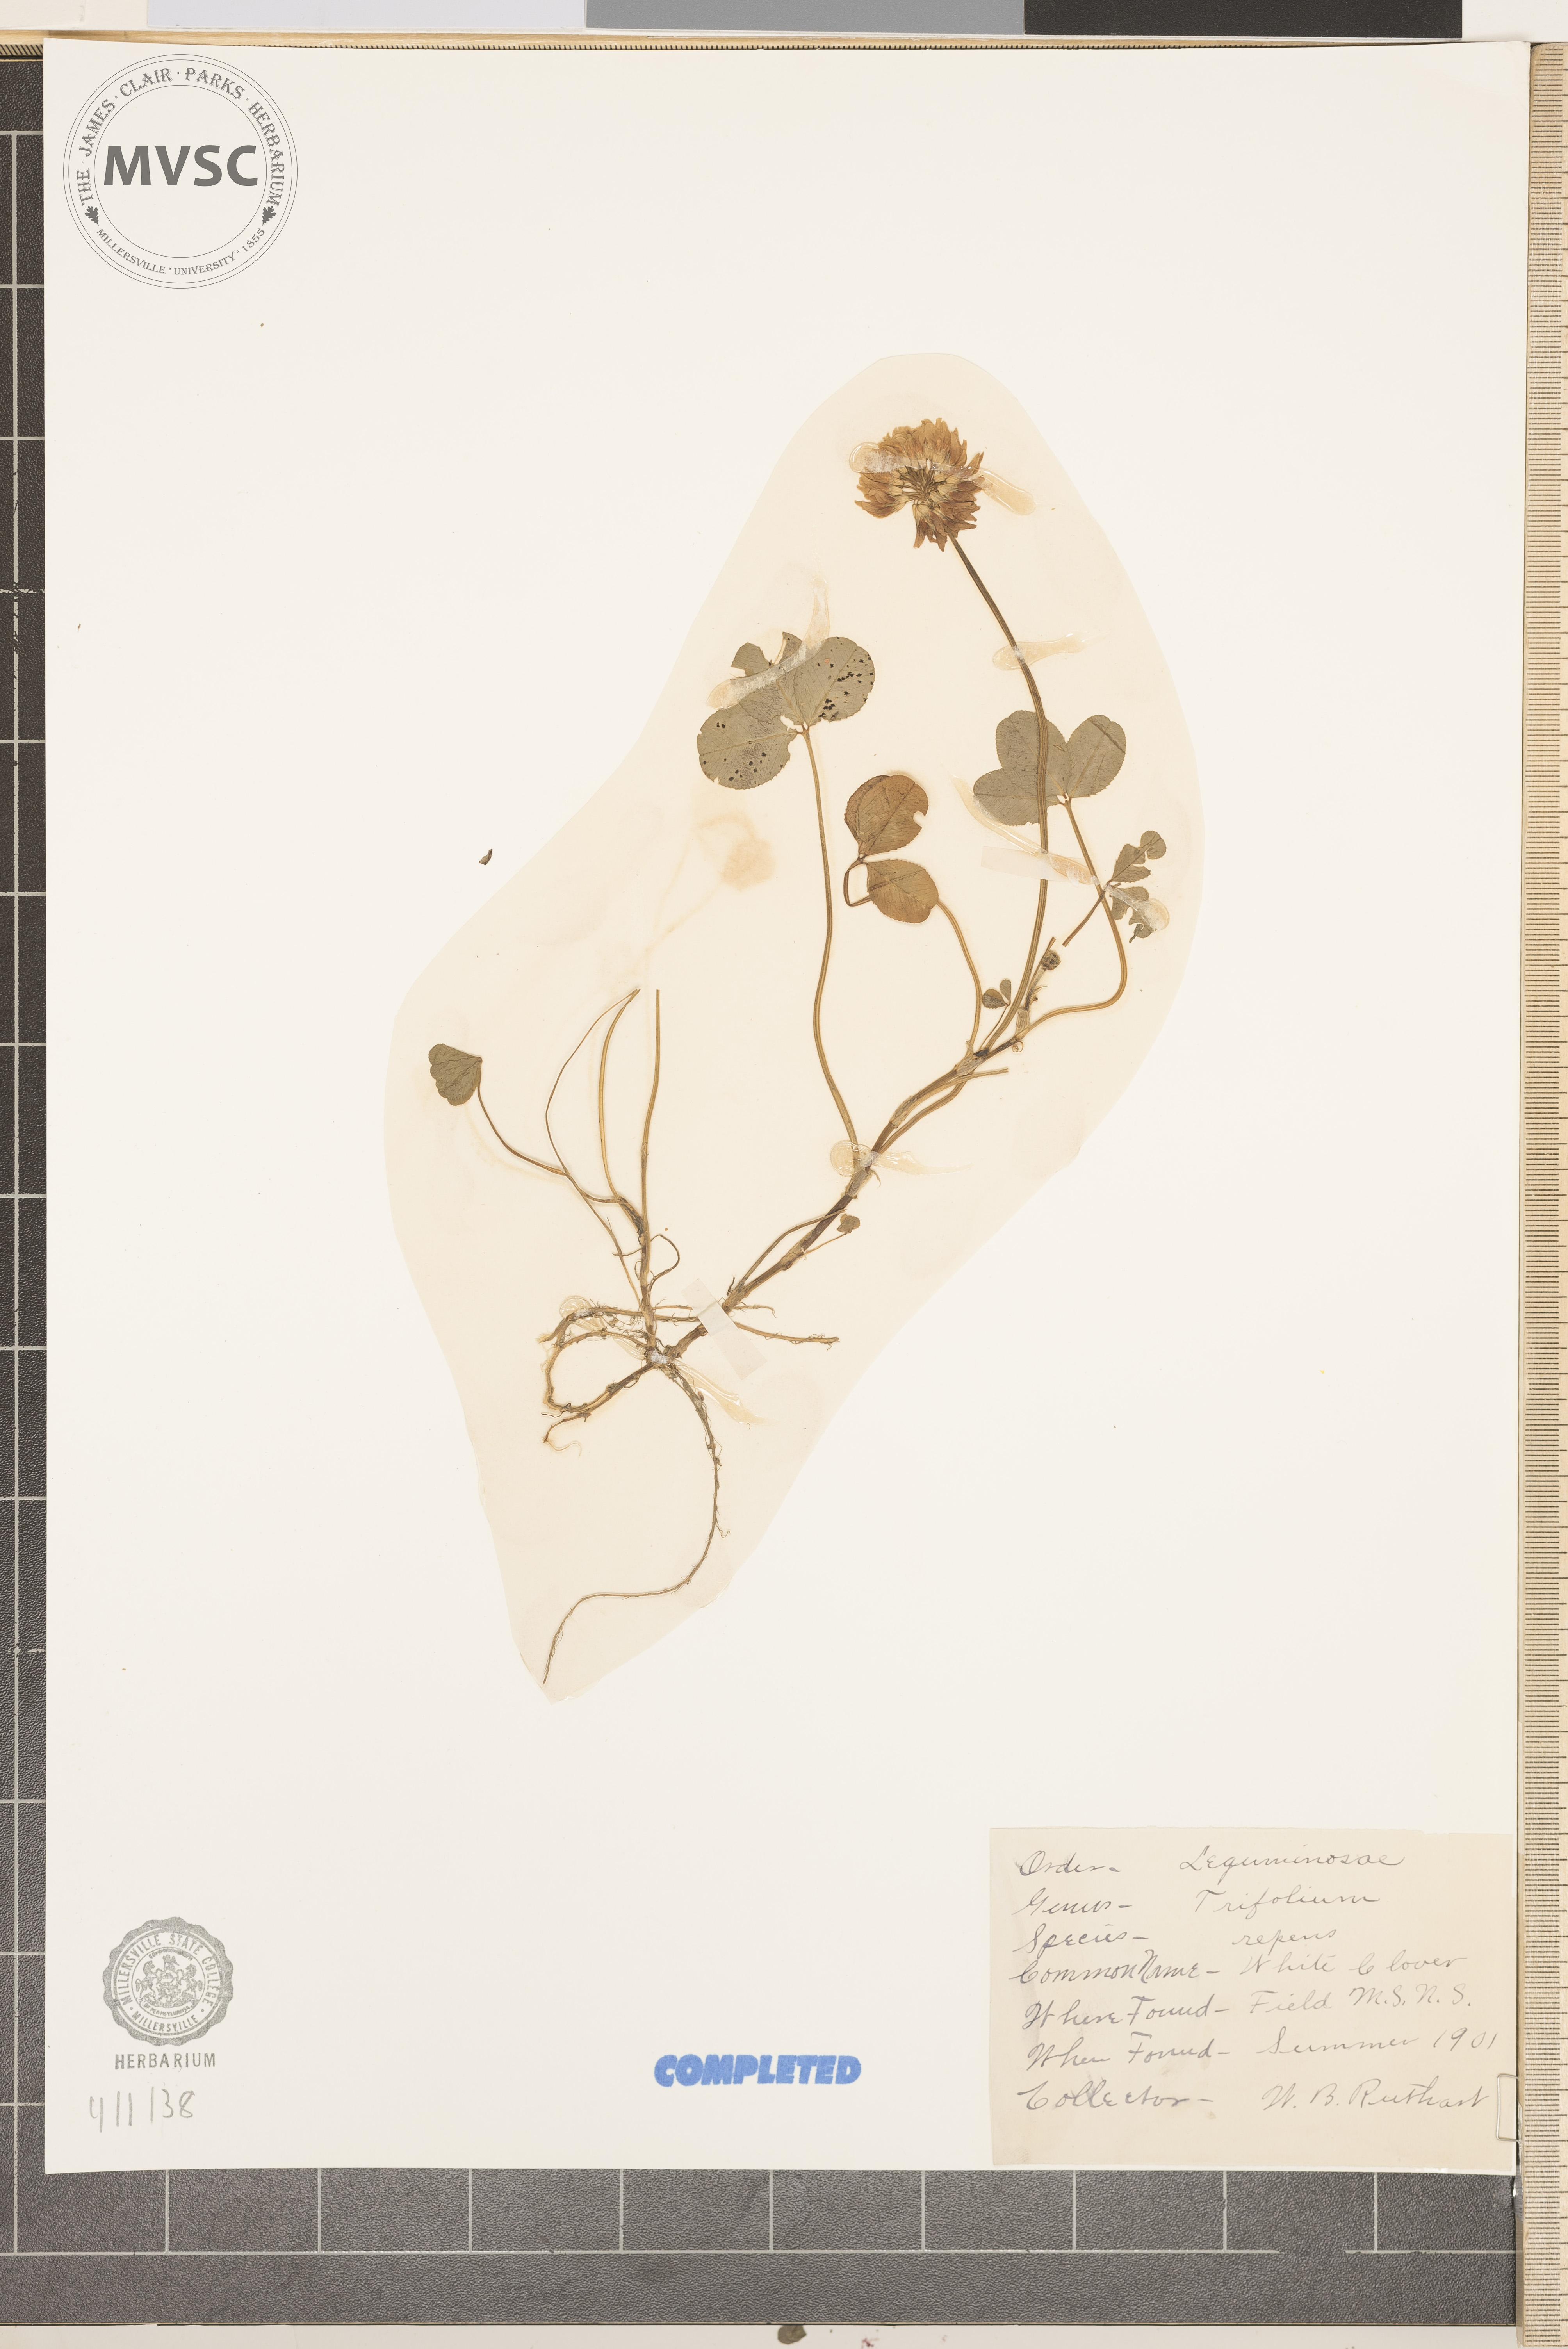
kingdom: Plantae
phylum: Tracheophyta
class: Magnoliopsida
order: Fabales
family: Fabaceae
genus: Trifolium
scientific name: Trifolium repens
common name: White clover
